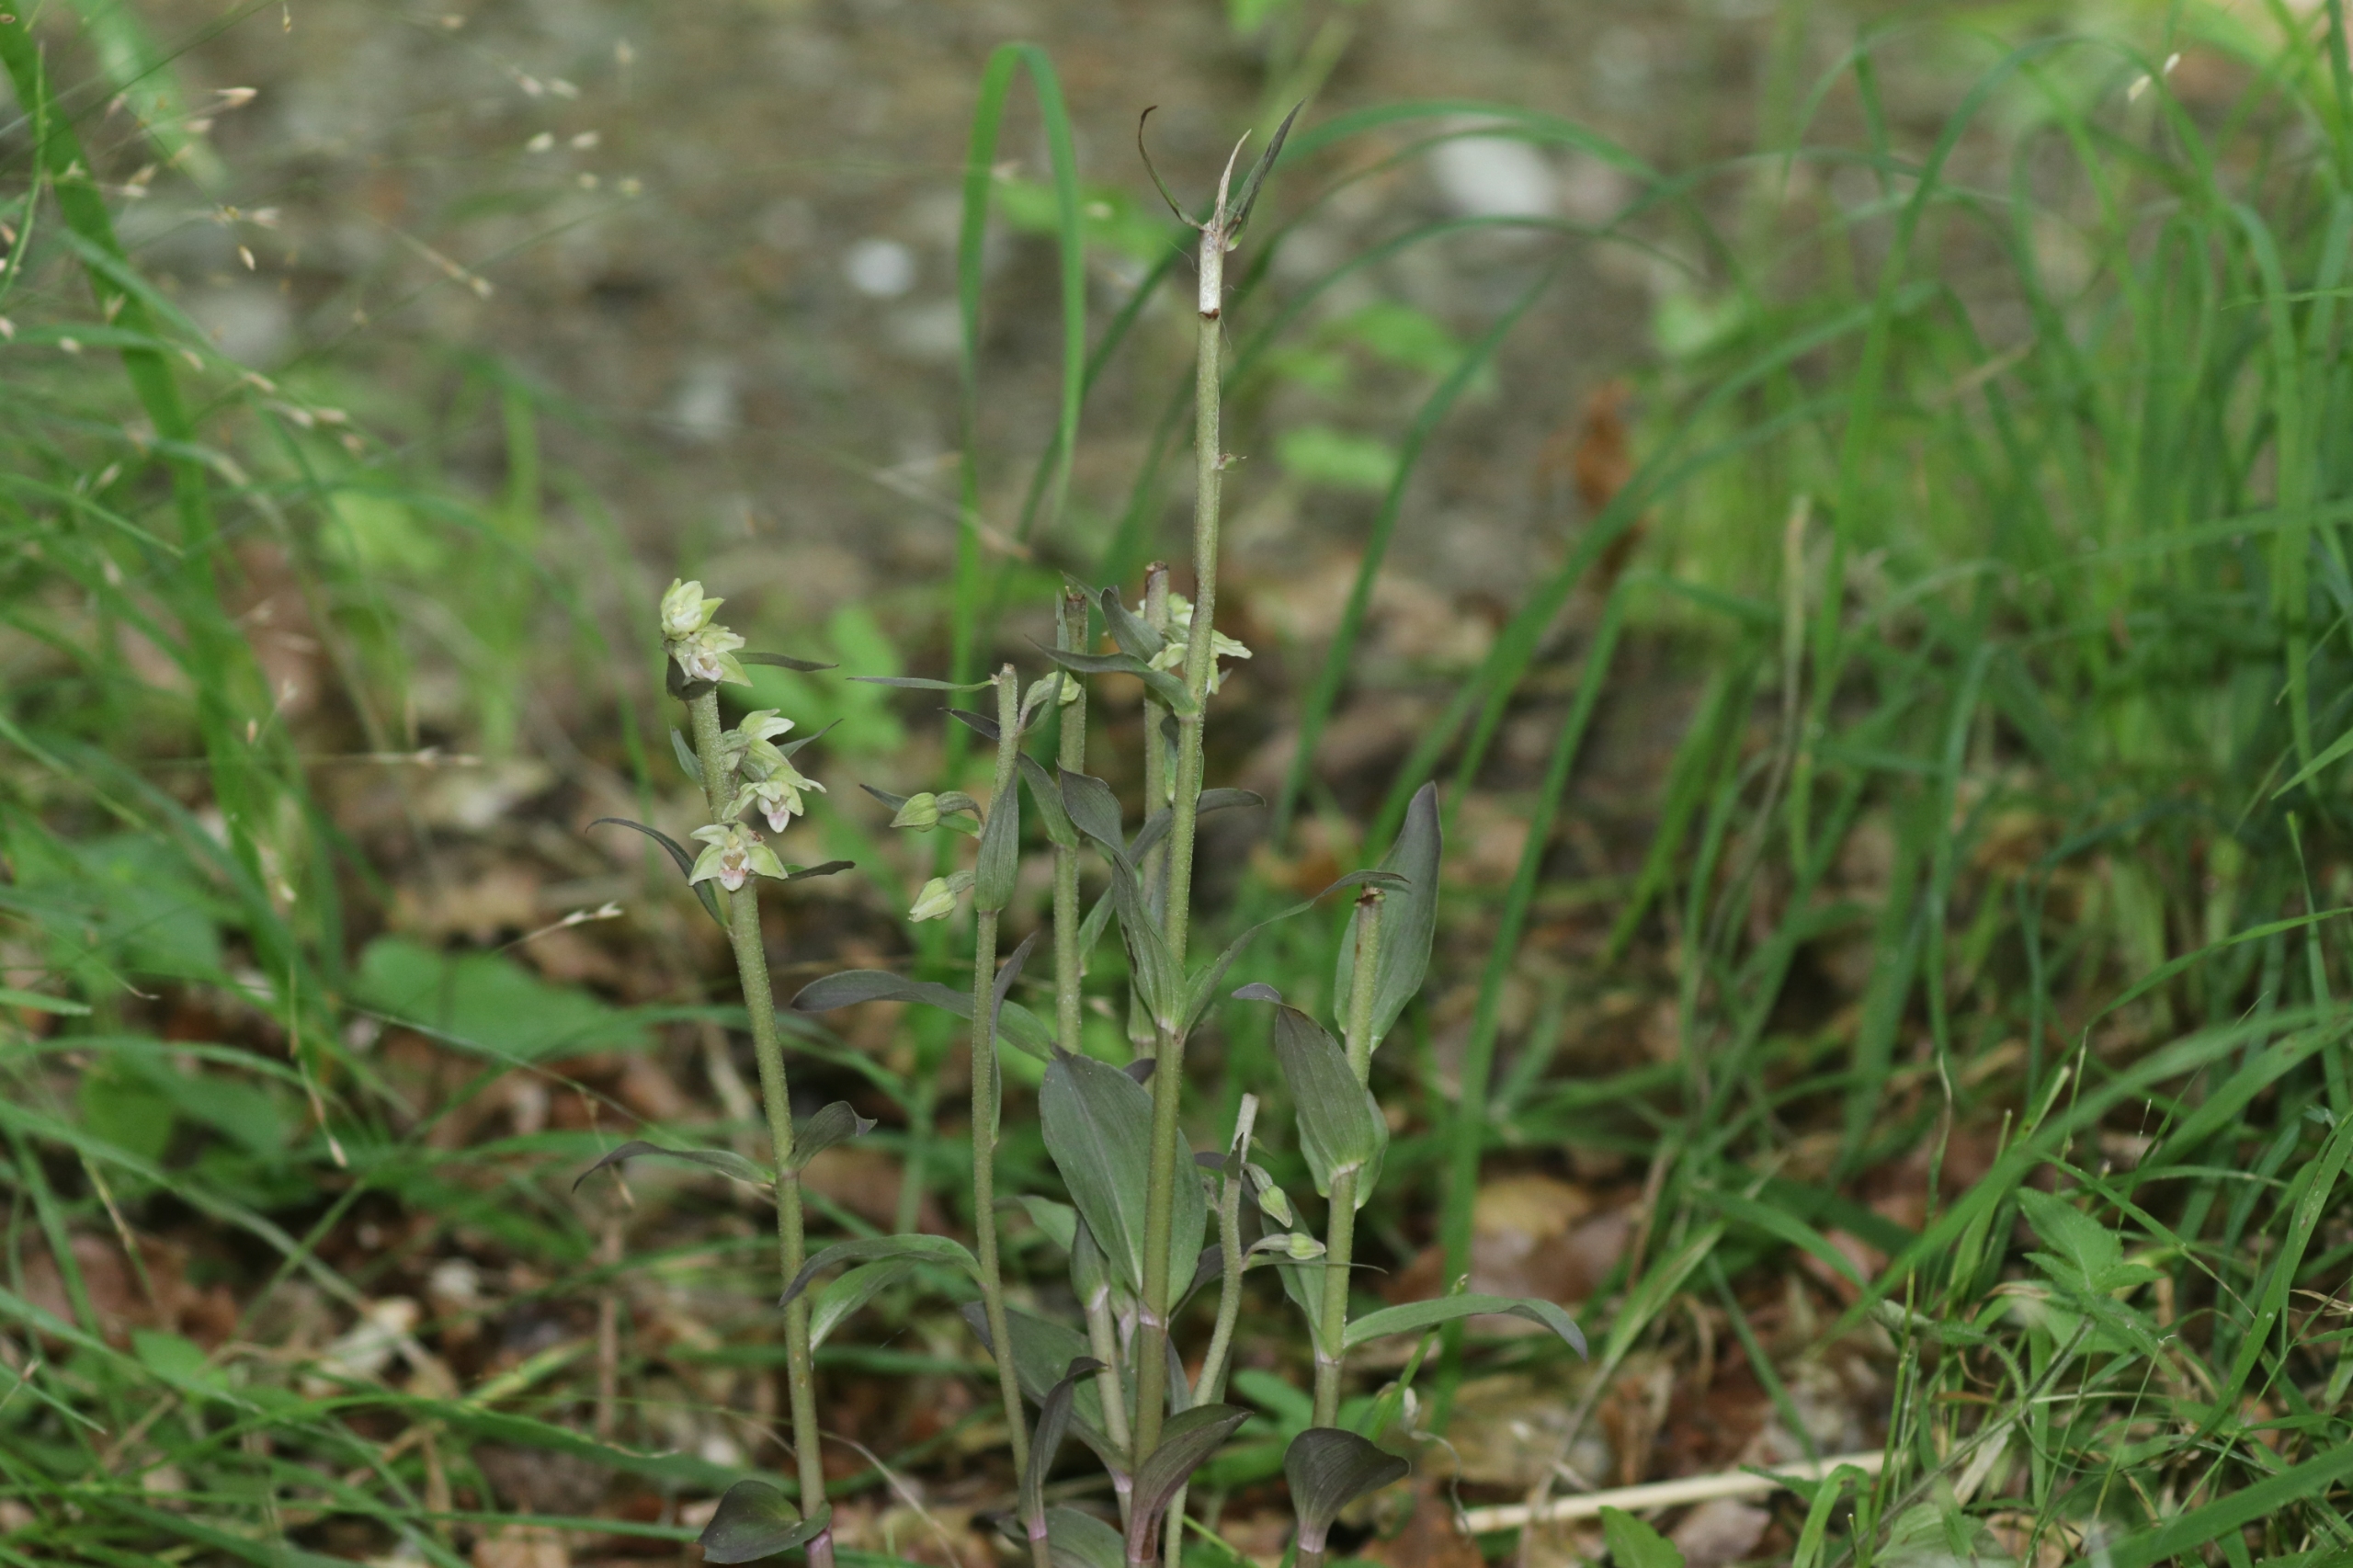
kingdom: Plantae
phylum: Tracheophyta
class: Liliopsida
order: Asparagales
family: Orchidaceae
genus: Epipactis
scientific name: Epipactis purpurata
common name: Tætblomstret hullæbe
